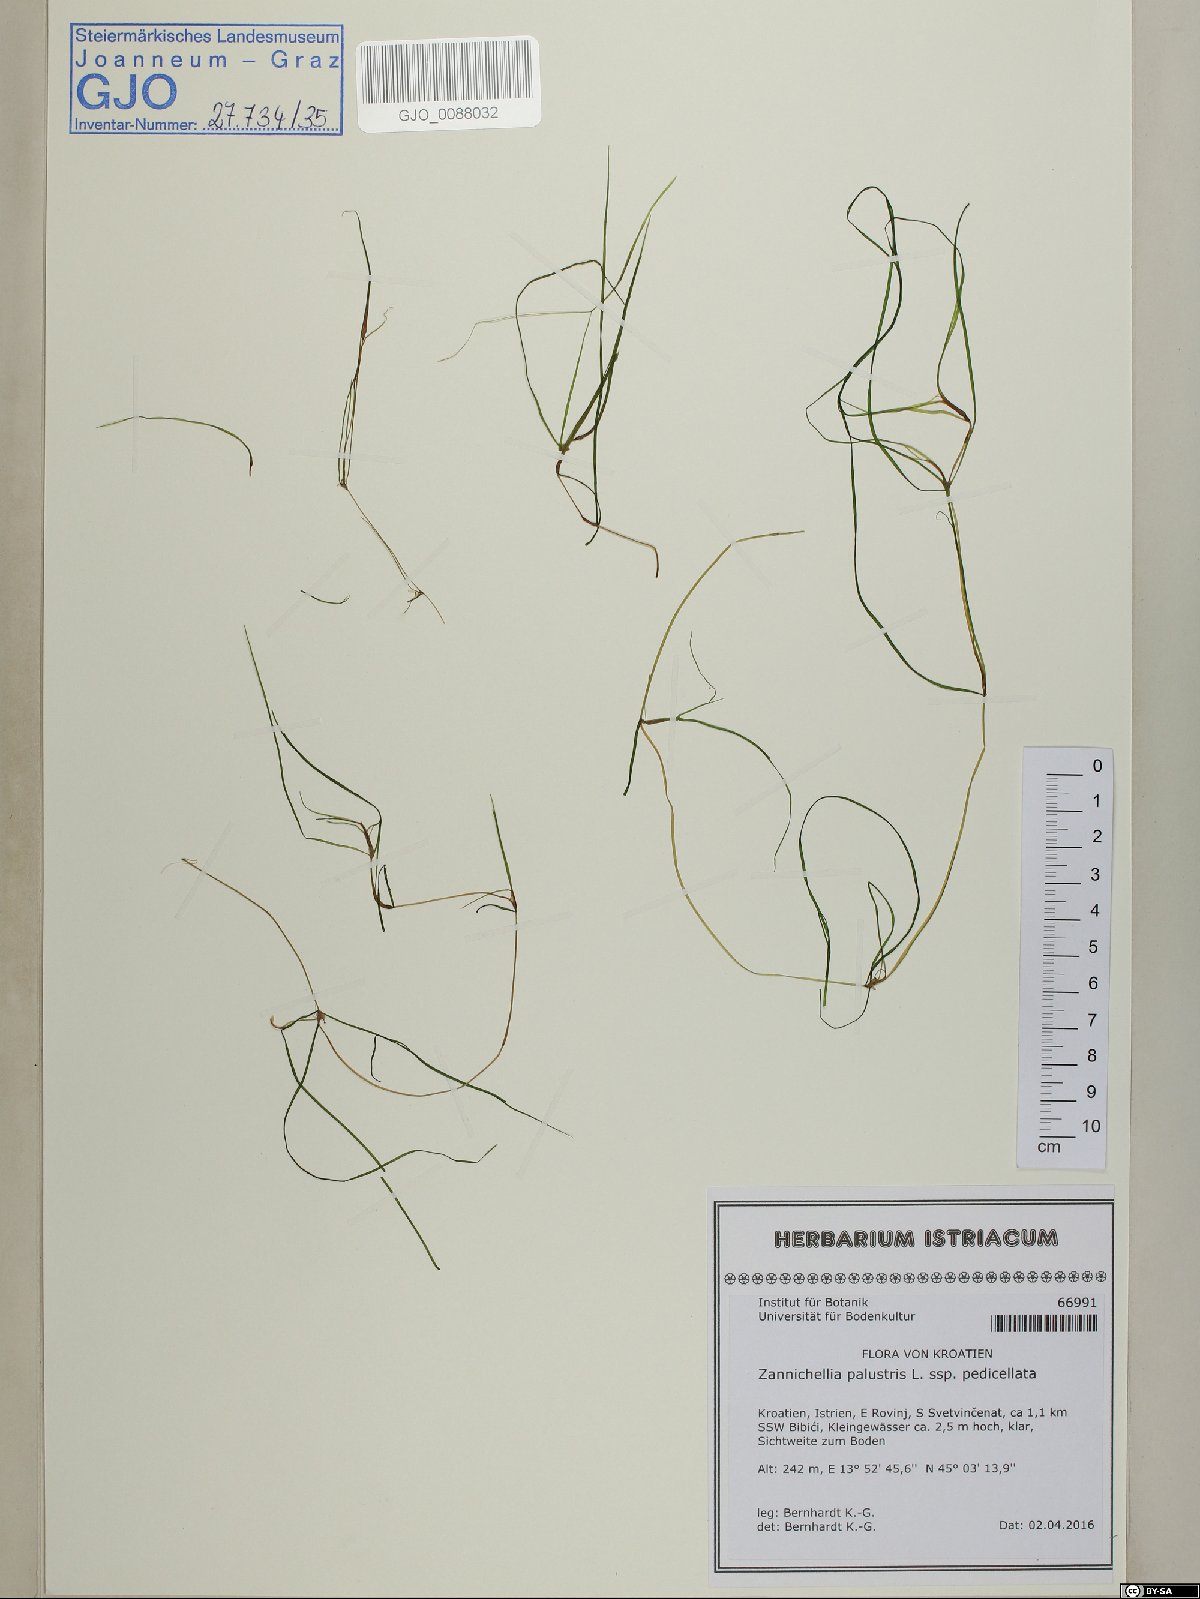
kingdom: Plantae
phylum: Tracheophyta
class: Liliopsida
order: Alismatales
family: Potamogetonaceae
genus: Zannichellia
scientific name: Zannichellia palustris
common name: Horned pondweed
